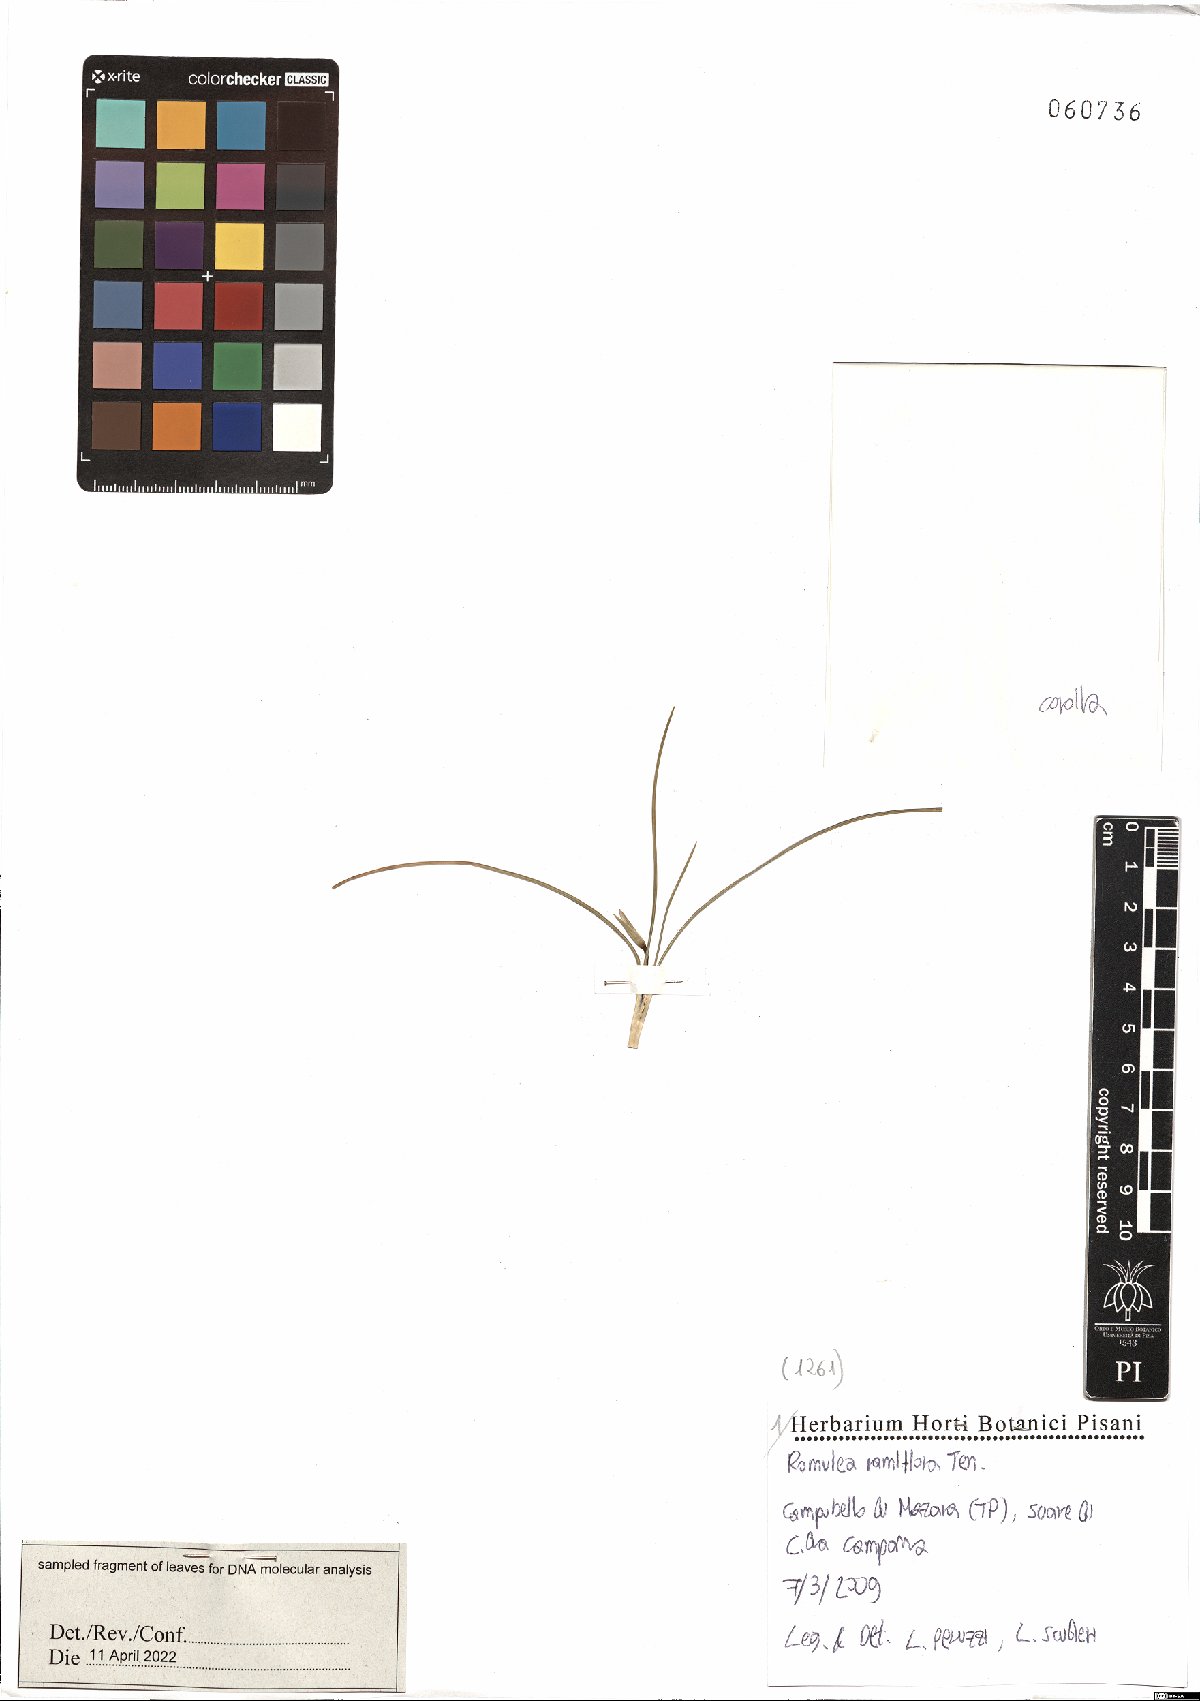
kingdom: Plantae
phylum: Tracheophyta
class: Liliopsida
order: Asparagales
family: Iridaceae
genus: Romulea
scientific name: Romulea ramiflora
